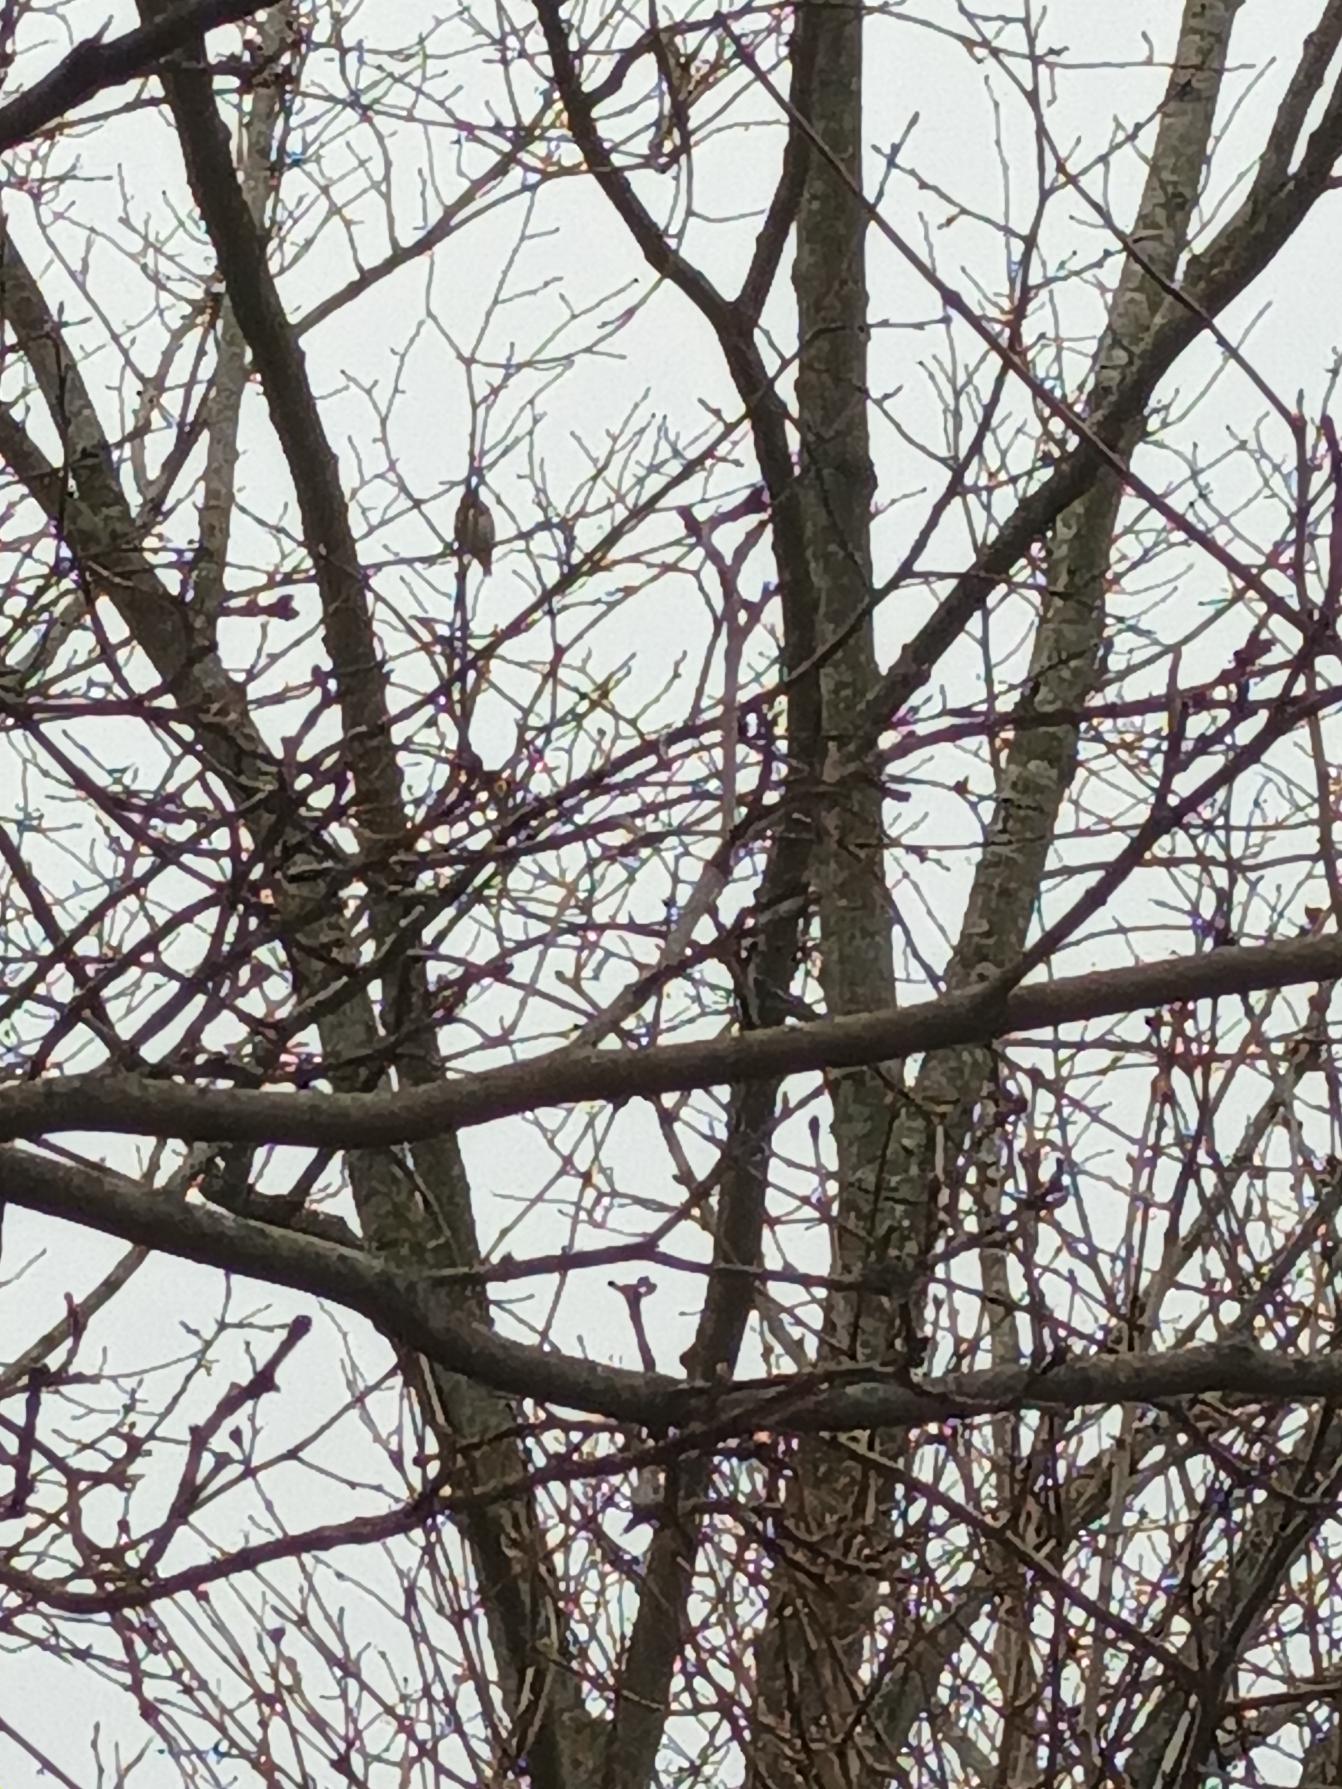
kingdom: Animalia
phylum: Chordata
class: Aves
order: Passeriformes
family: Fringillidae
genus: Carduelis
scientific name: Carduelis carduelis
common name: Stillits
